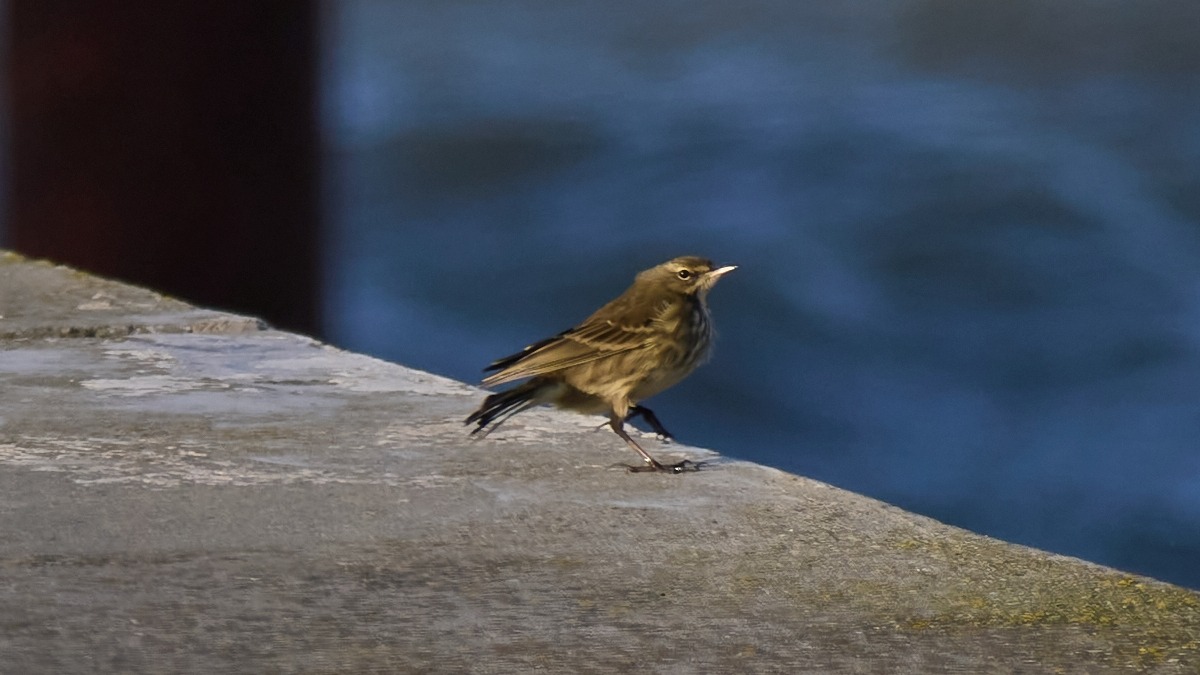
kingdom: Animalia
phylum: Chordata
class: Aves
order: Passeriformes
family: Motacillidae
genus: Anthus
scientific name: Anthus petrosus
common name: Skærpiber
